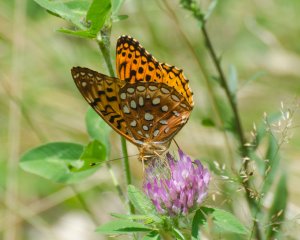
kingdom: Animalia
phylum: Arthropoda
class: Insecta
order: Lepidoptera
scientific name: Lepidoptera
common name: Butterflies
